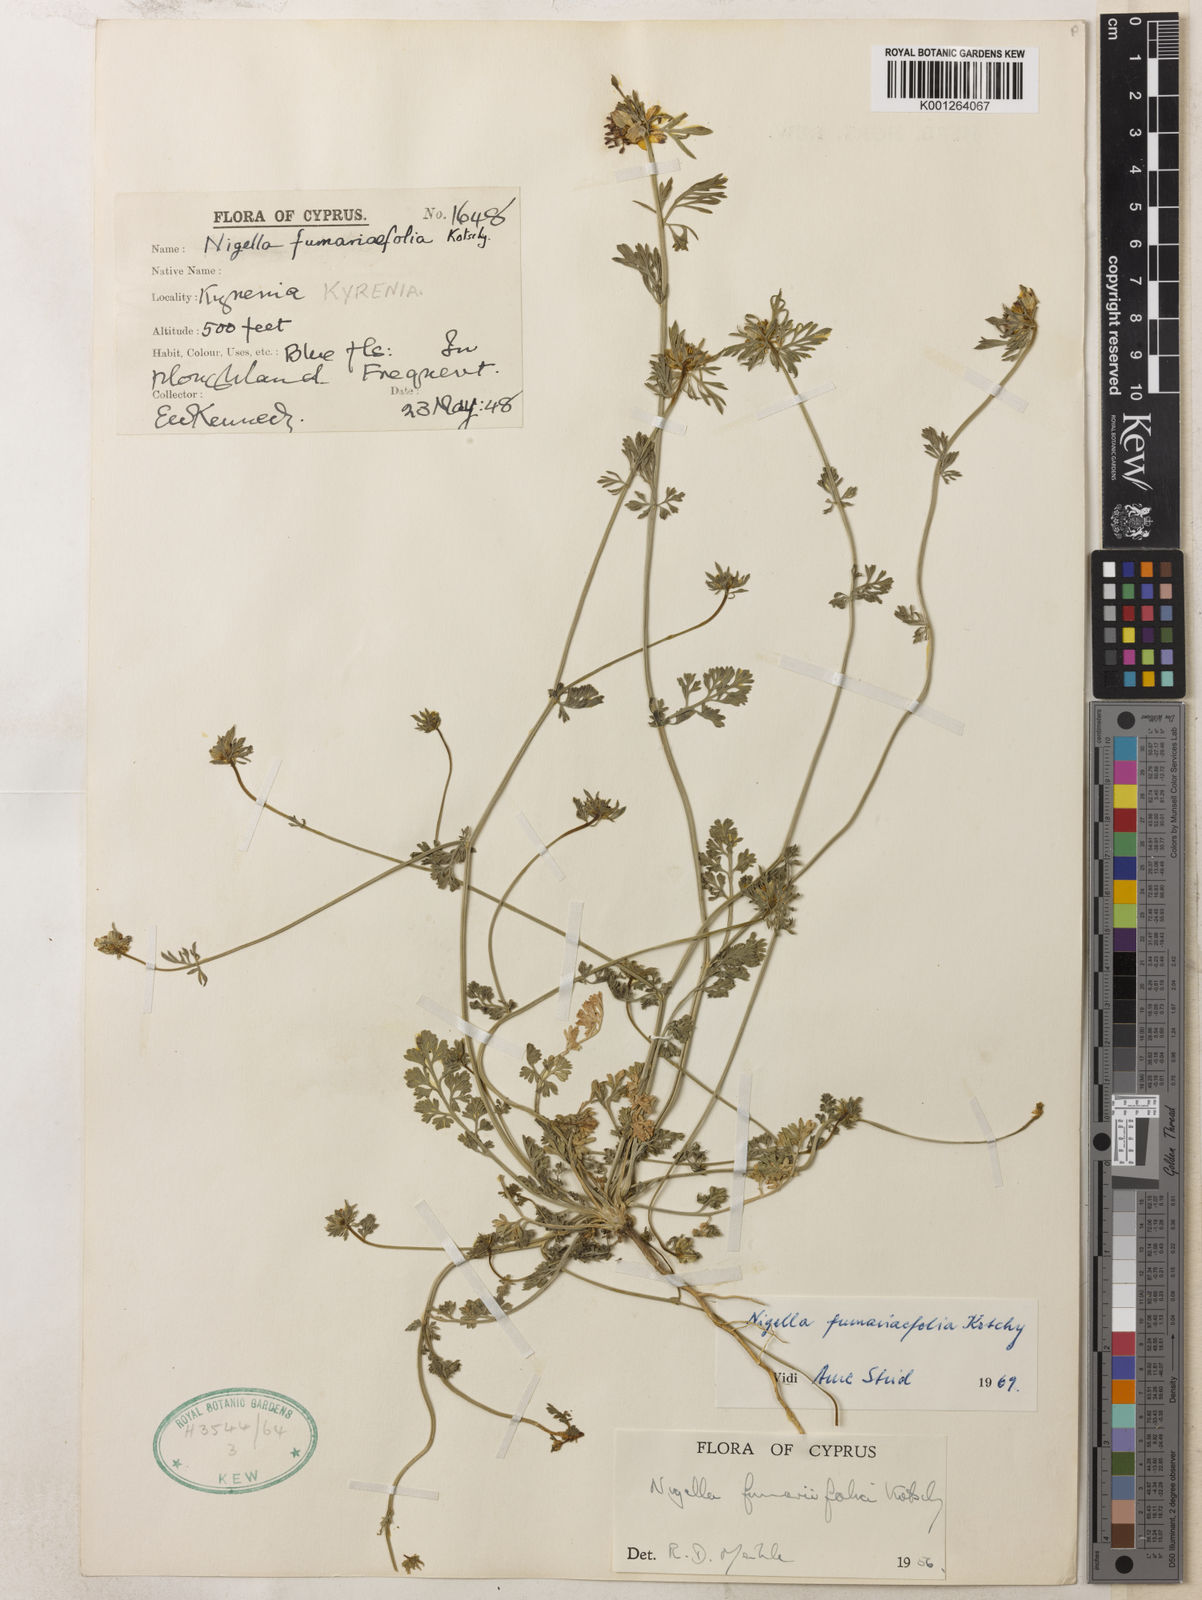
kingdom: Plantae
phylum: Tracheophyta
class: Magnoliopsida
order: Ranunculales
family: Ranunculaceae
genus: Nigella
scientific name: Nigella
